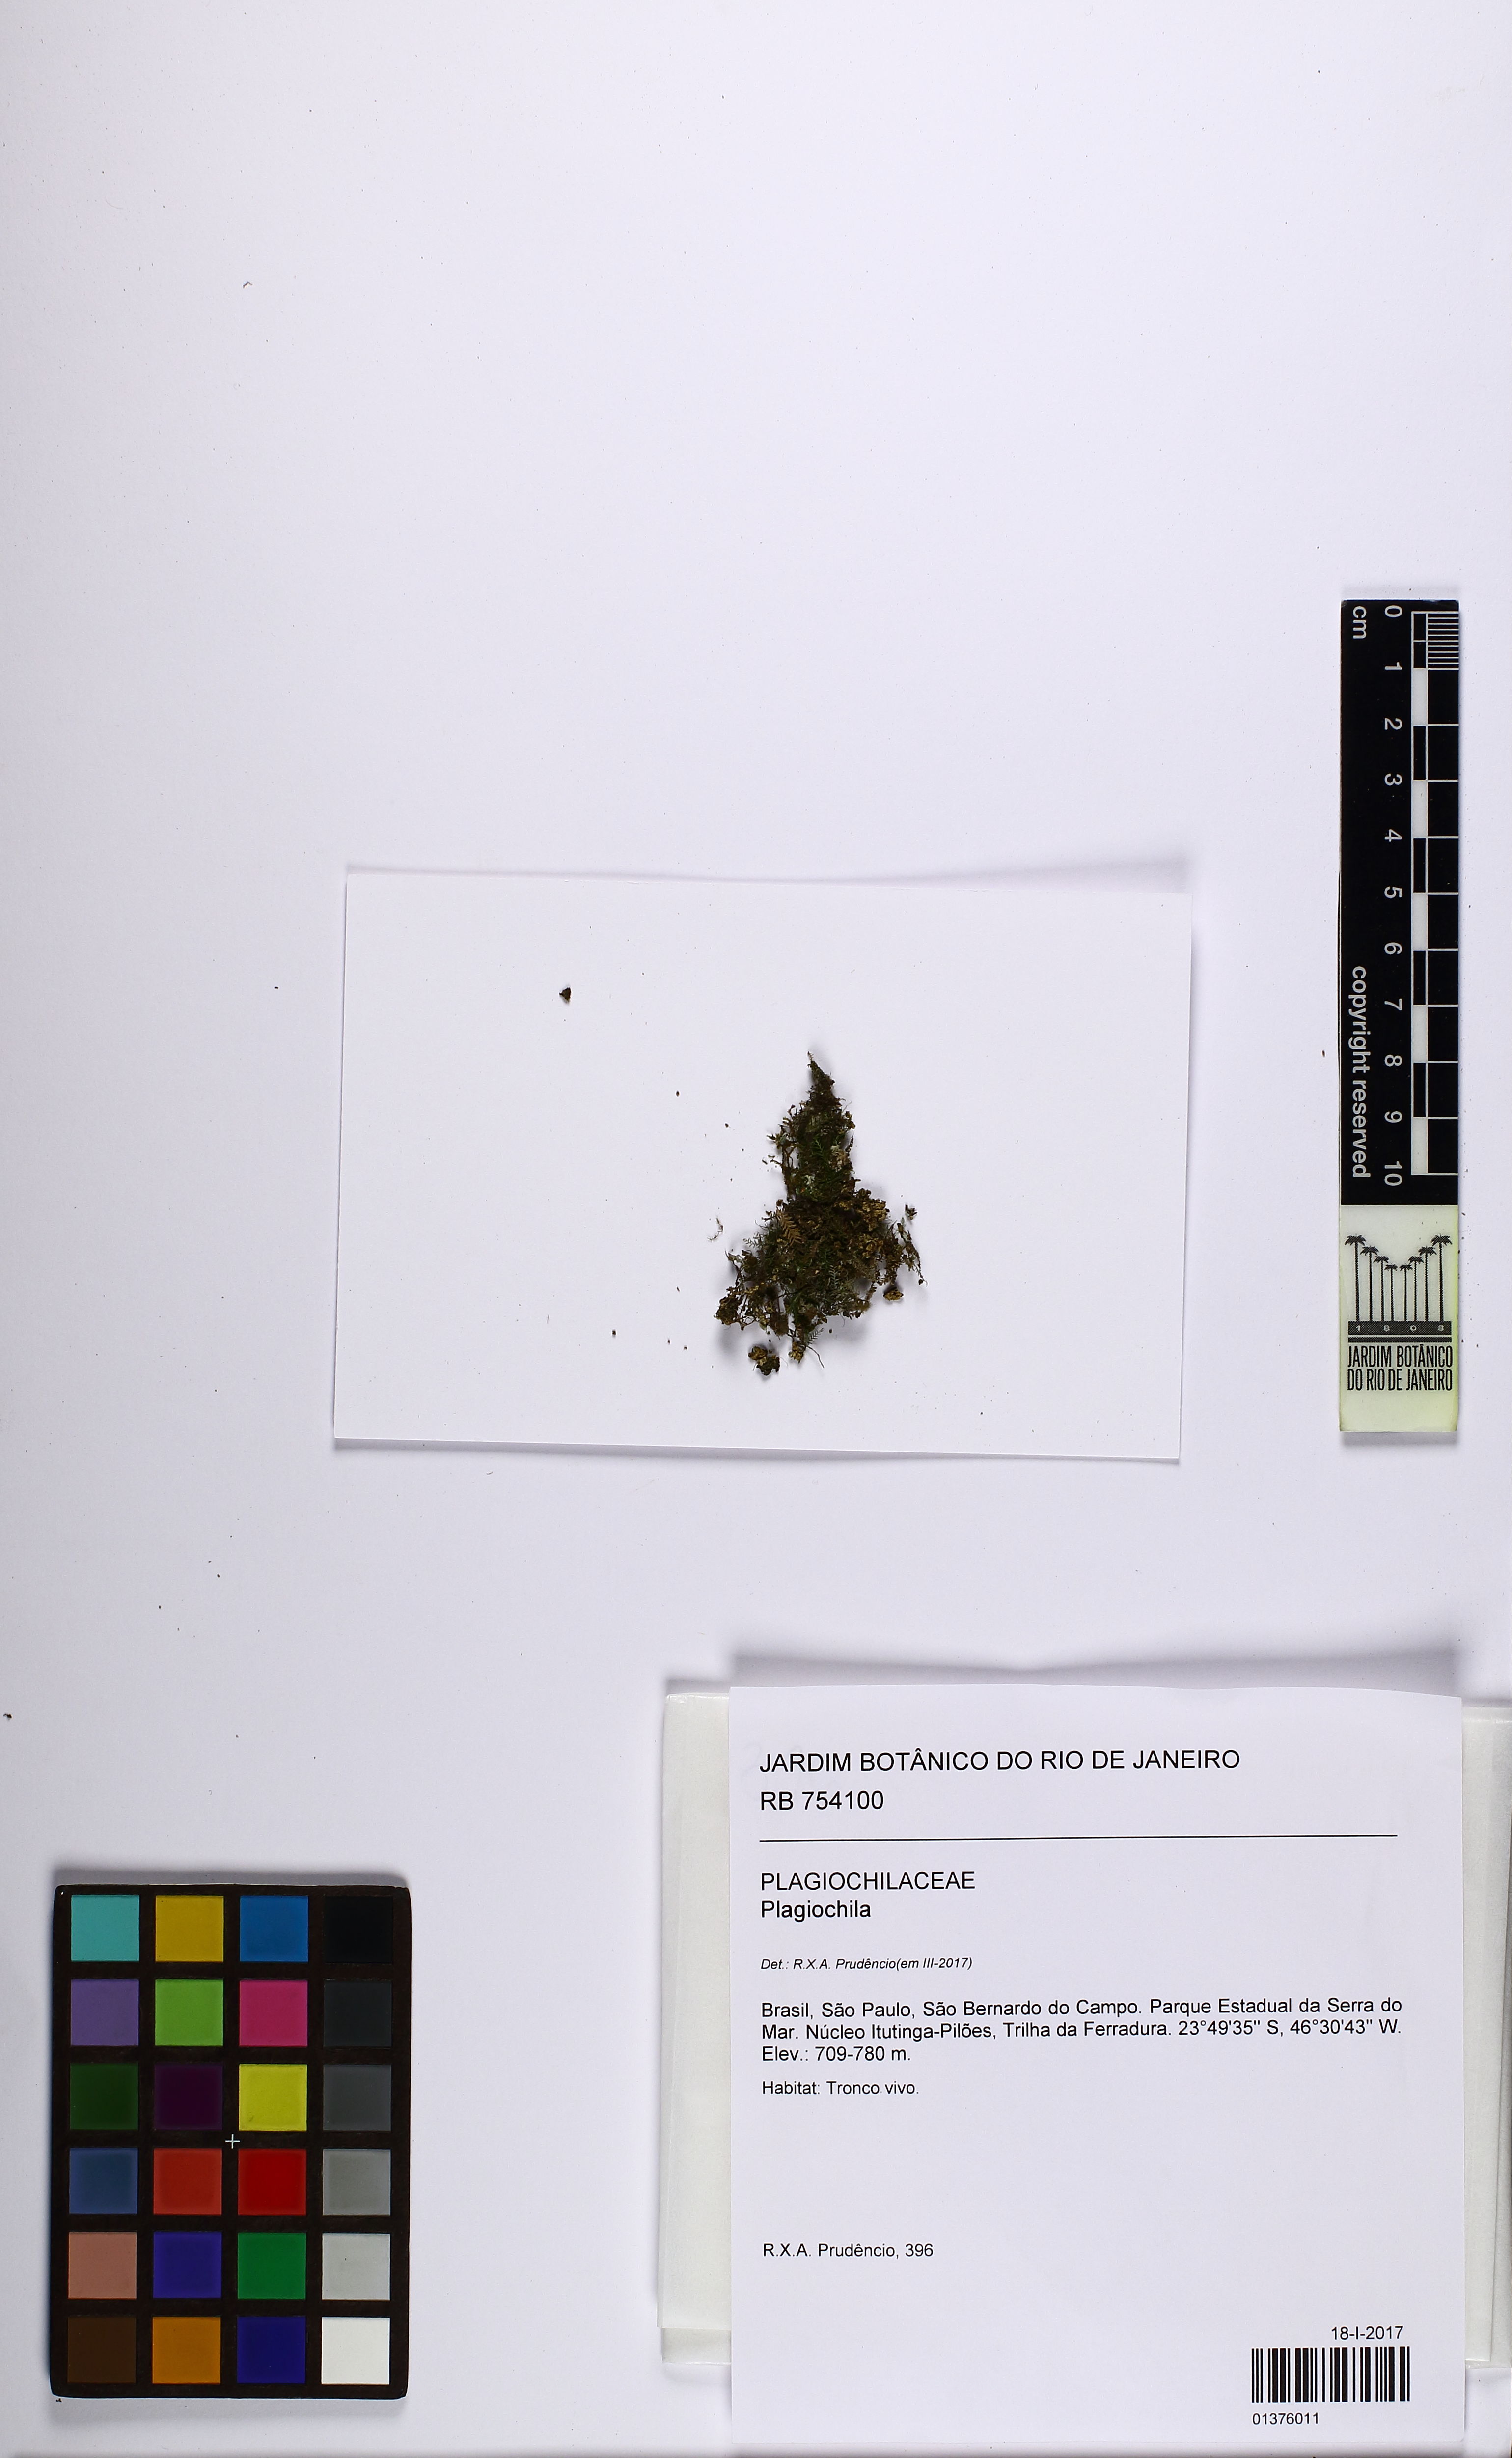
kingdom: Plantae
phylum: Marchantiophyta
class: Jungermanniopsida
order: Jungermanniales
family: Plagiochilaceae
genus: Plagiochila
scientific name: Plagiochila
